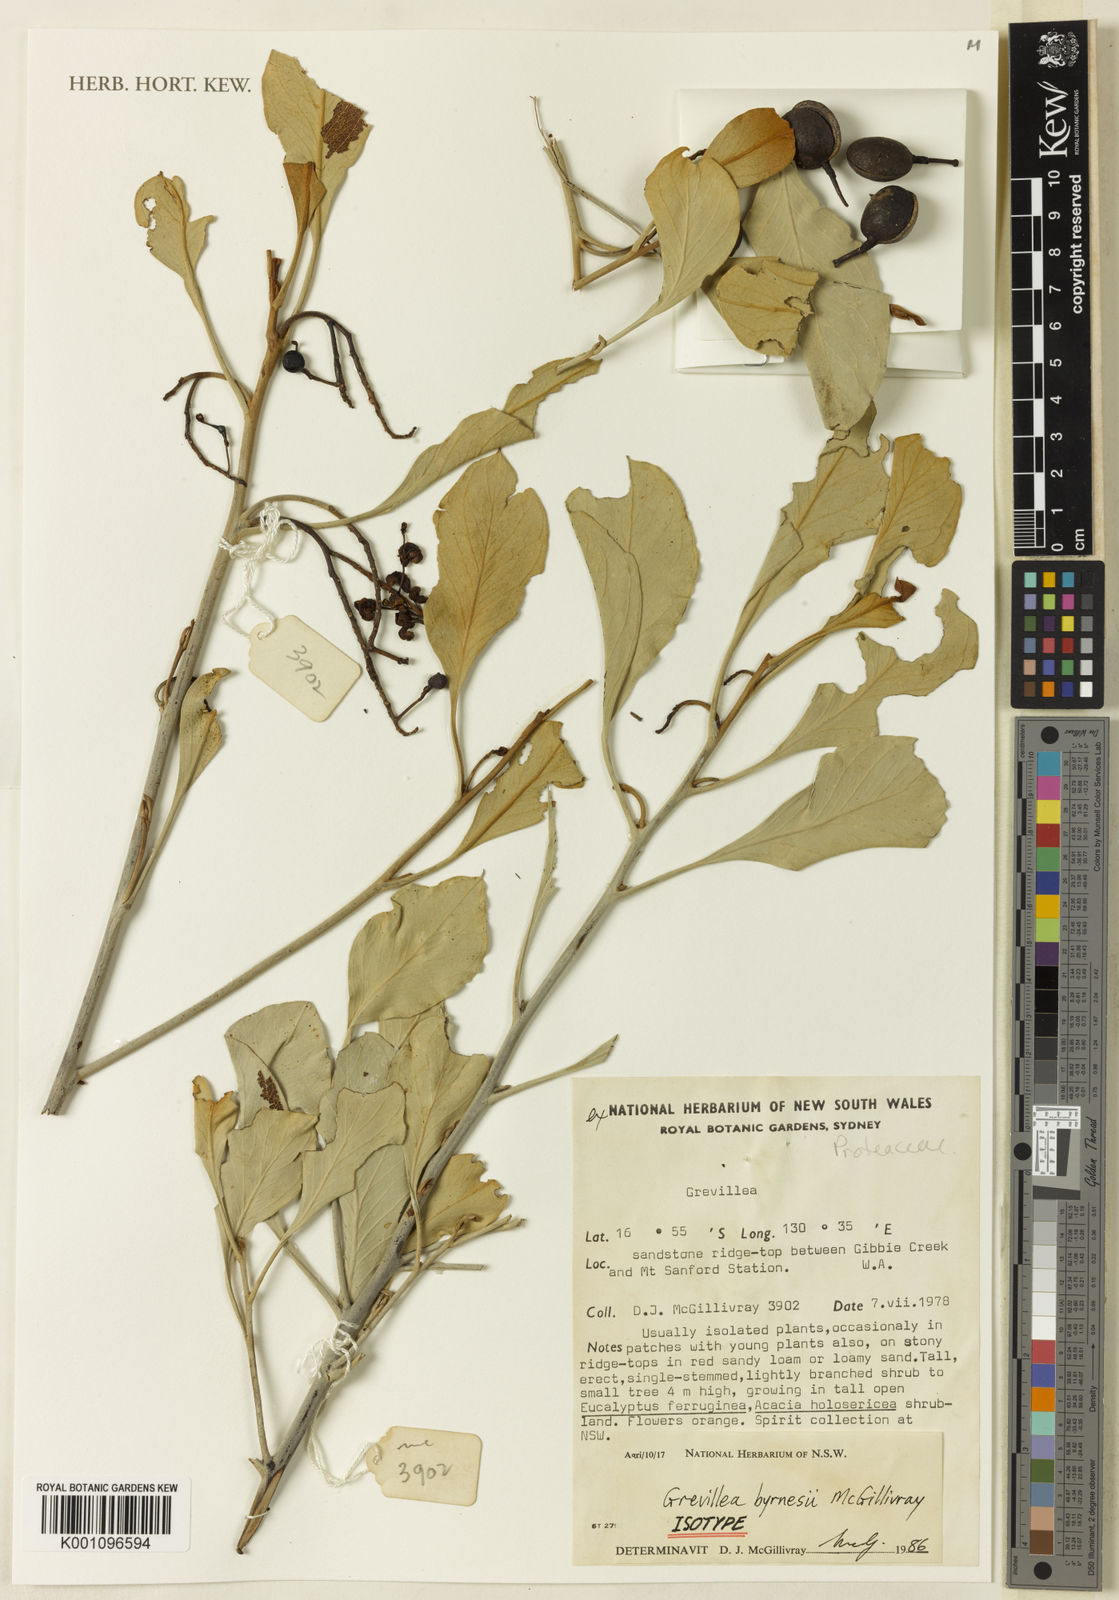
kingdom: Plantae
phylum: Tracheophyta
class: Magnoliopsida
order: Proteales
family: Proteaceae
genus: Grevillea
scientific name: Grevillea byrnesii
